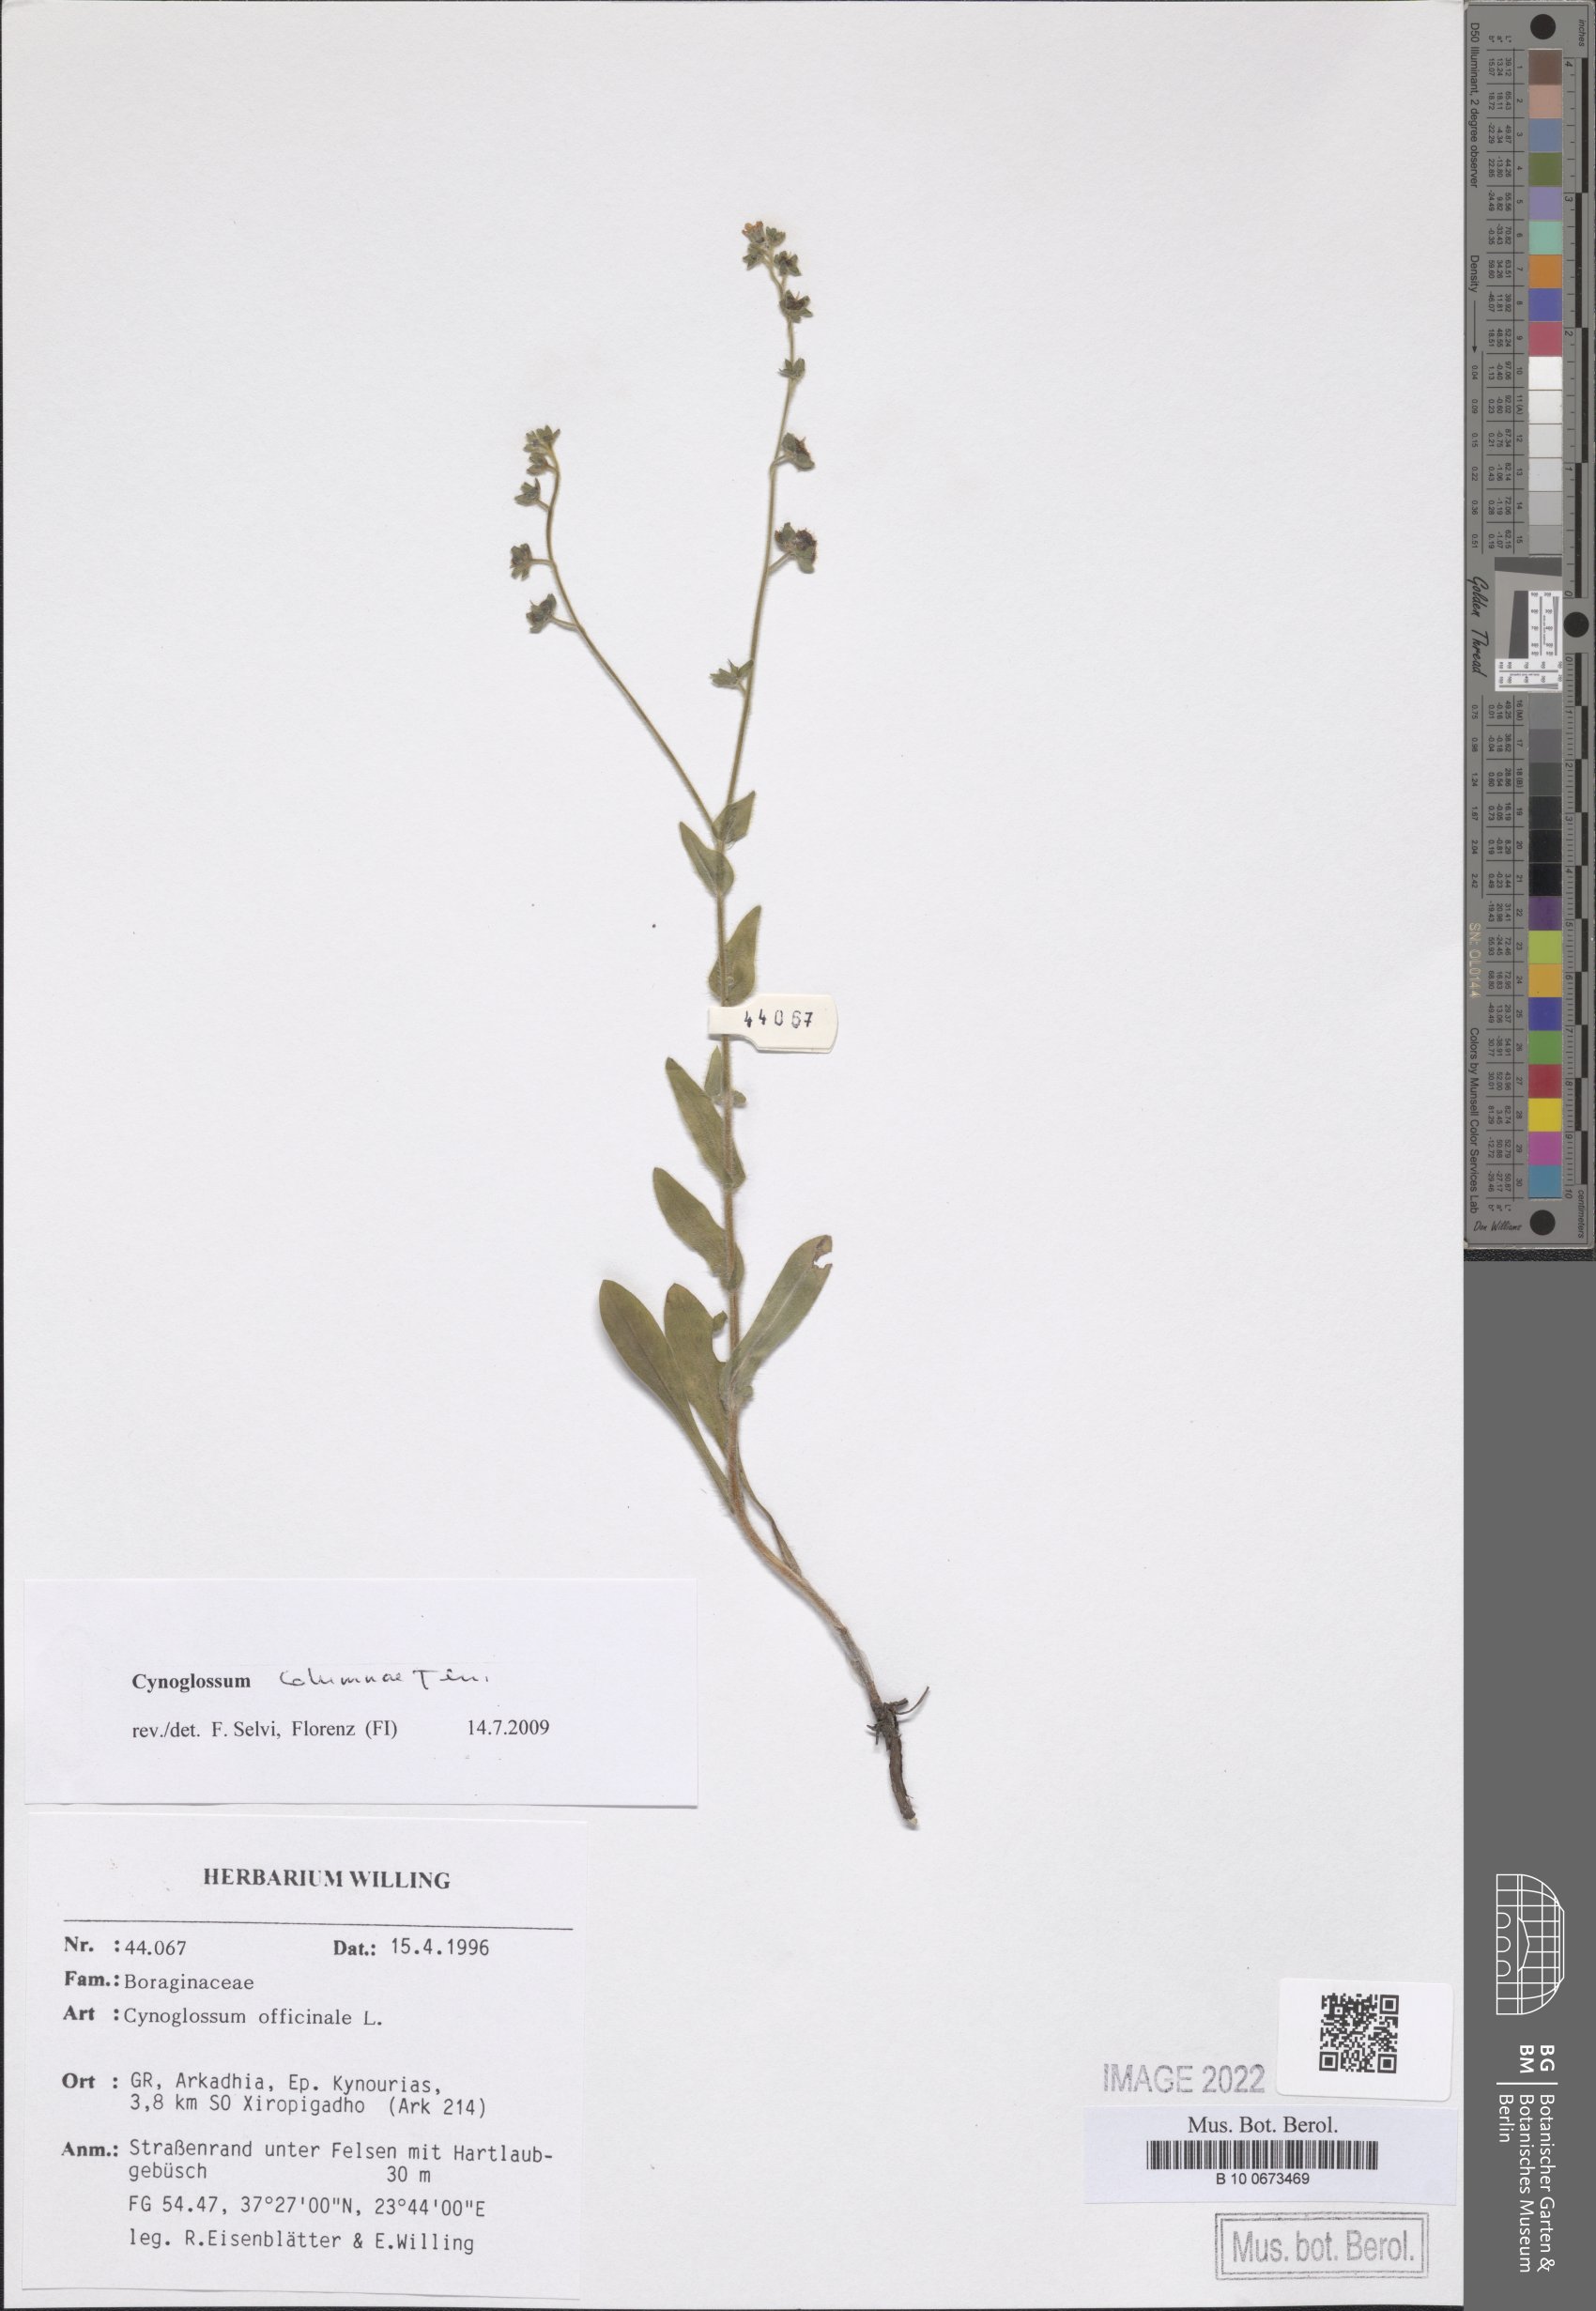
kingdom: Plantae
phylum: Tracheophyta
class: Magnoliopsida
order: Boraginales
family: Boraginaceae
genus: Rindera
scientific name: Rindera columnae
